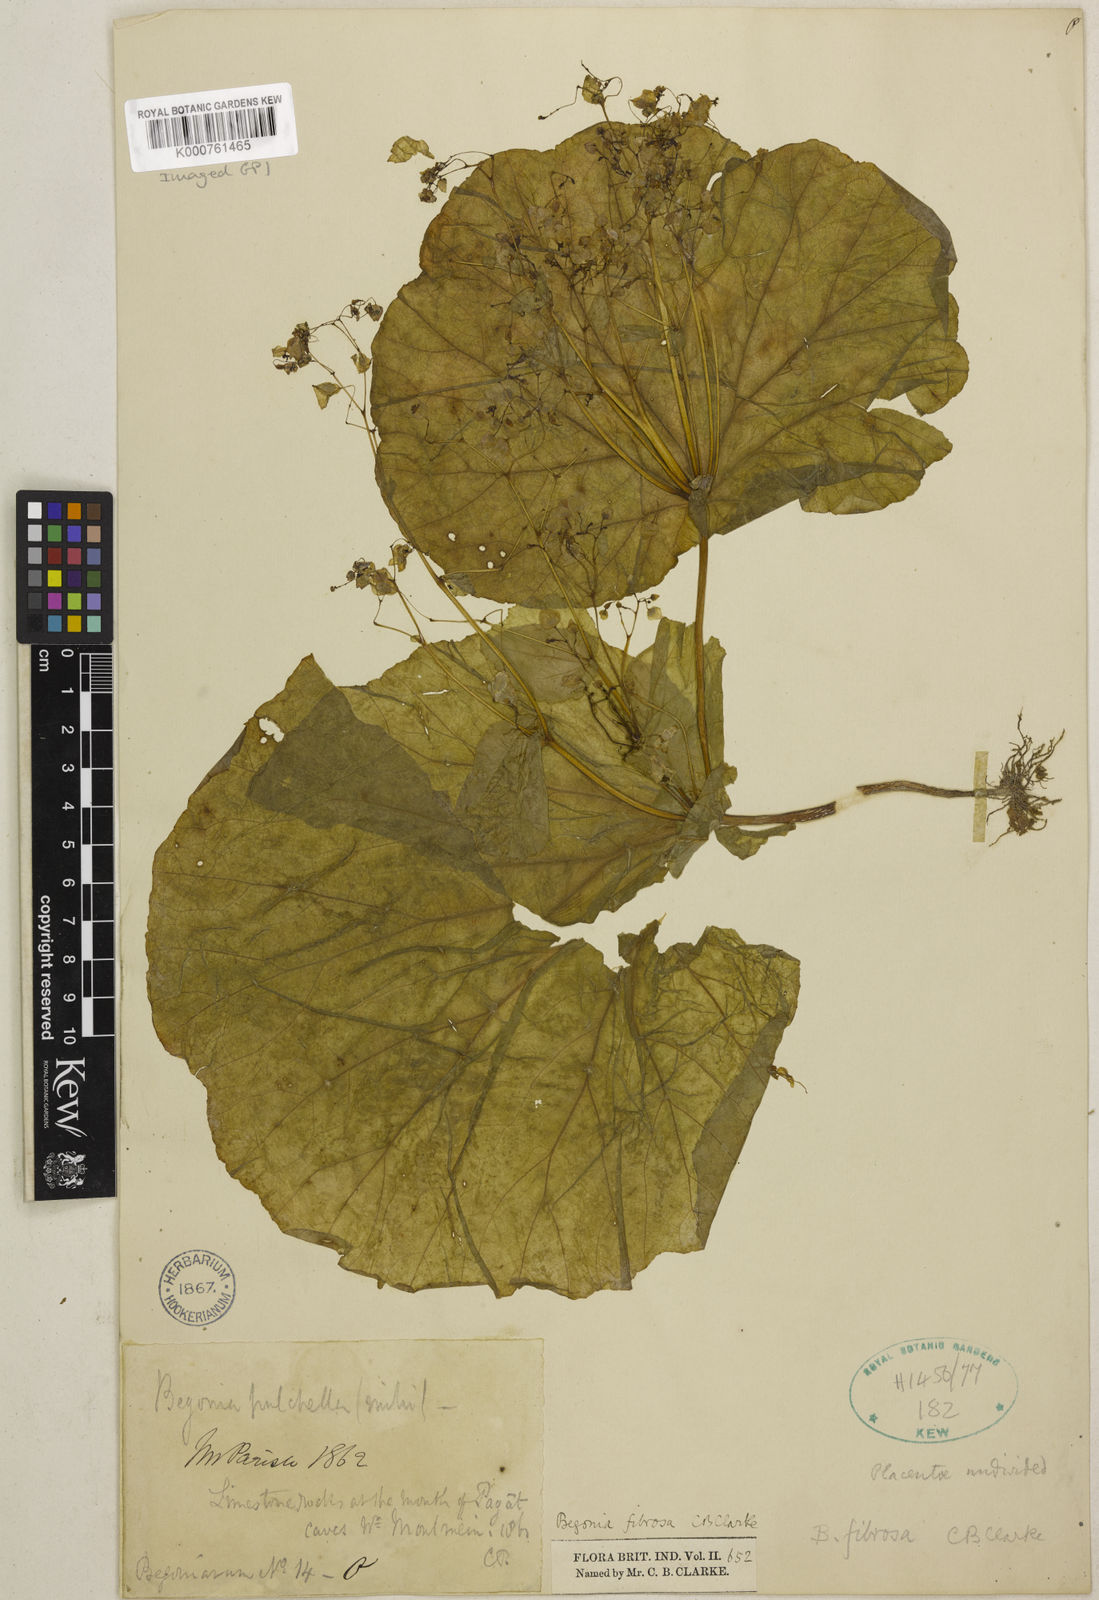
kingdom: Plantae
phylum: Tracheophyta
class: Magnoliopsida
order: Cucurbitales
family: Begoniaceae
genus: Begonia
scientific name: Begonia fibrosa
